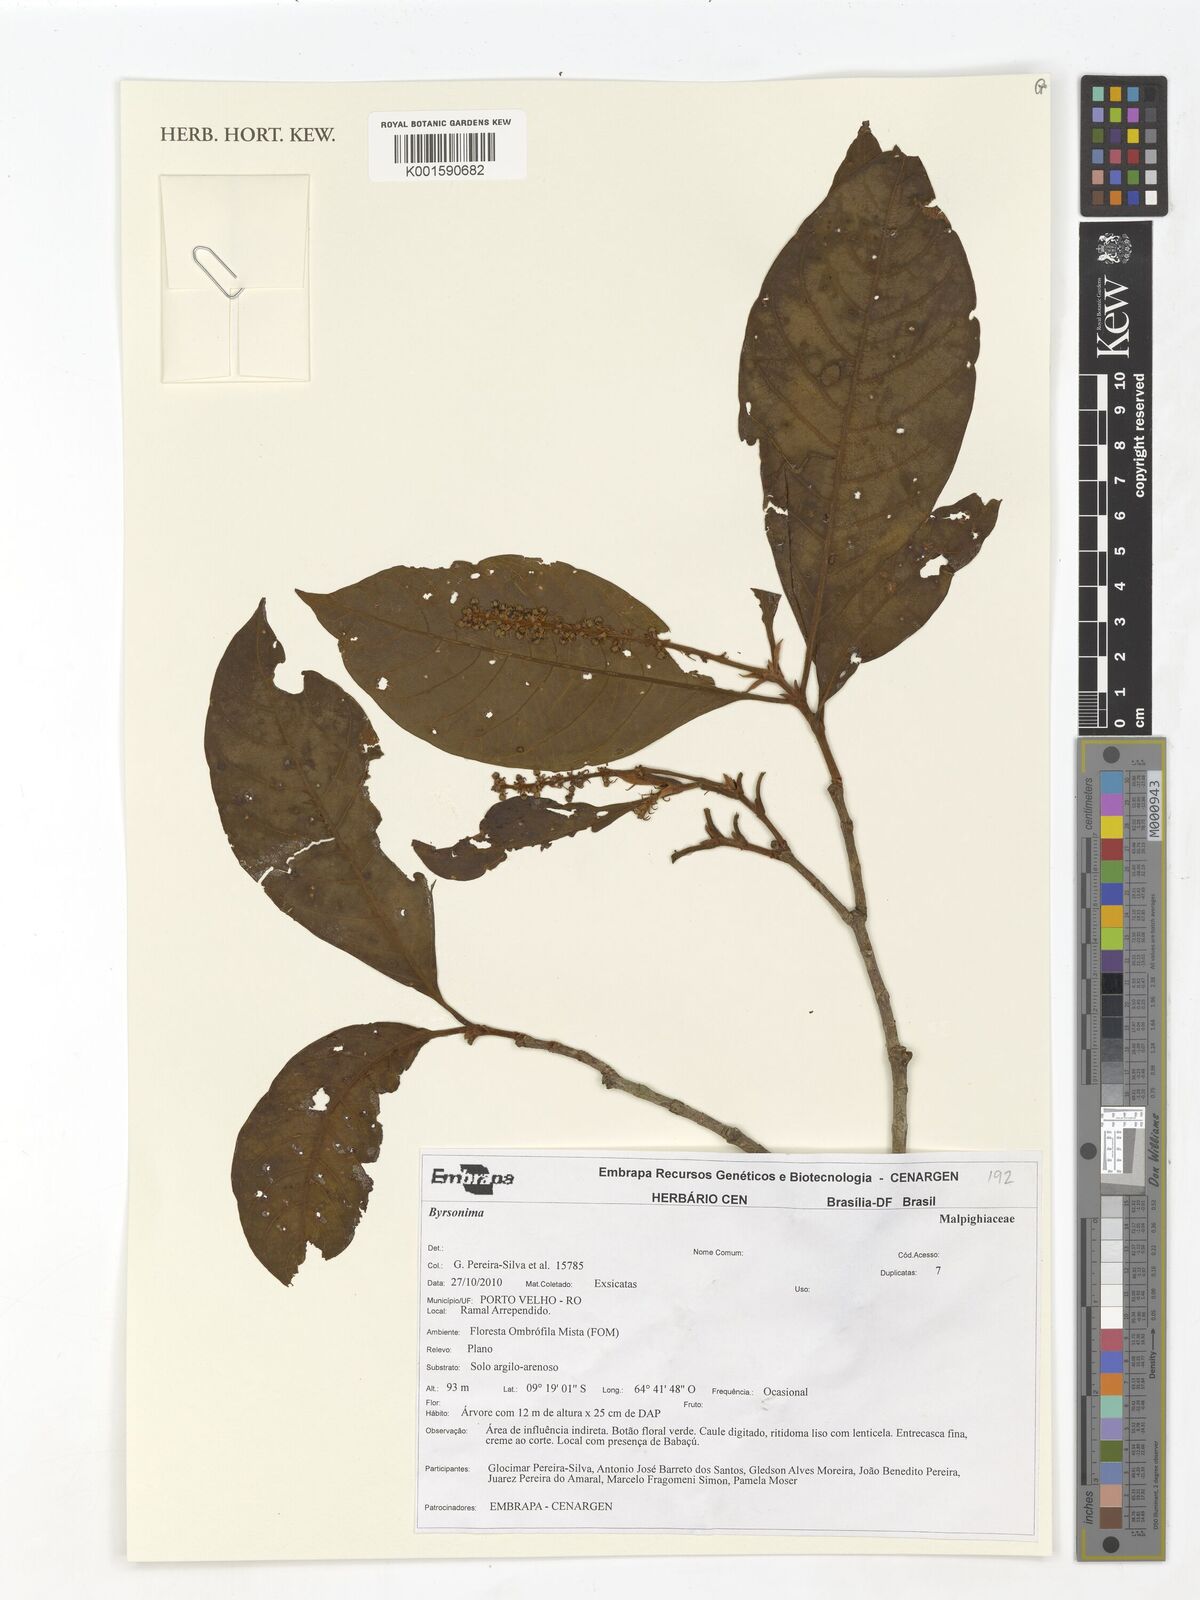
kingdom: Plantae
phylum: Tracheophyta
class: Magnoliopsida
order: Malpighiales
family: Malpighiaceae
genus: Byrsonima
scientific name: Byrsonima
